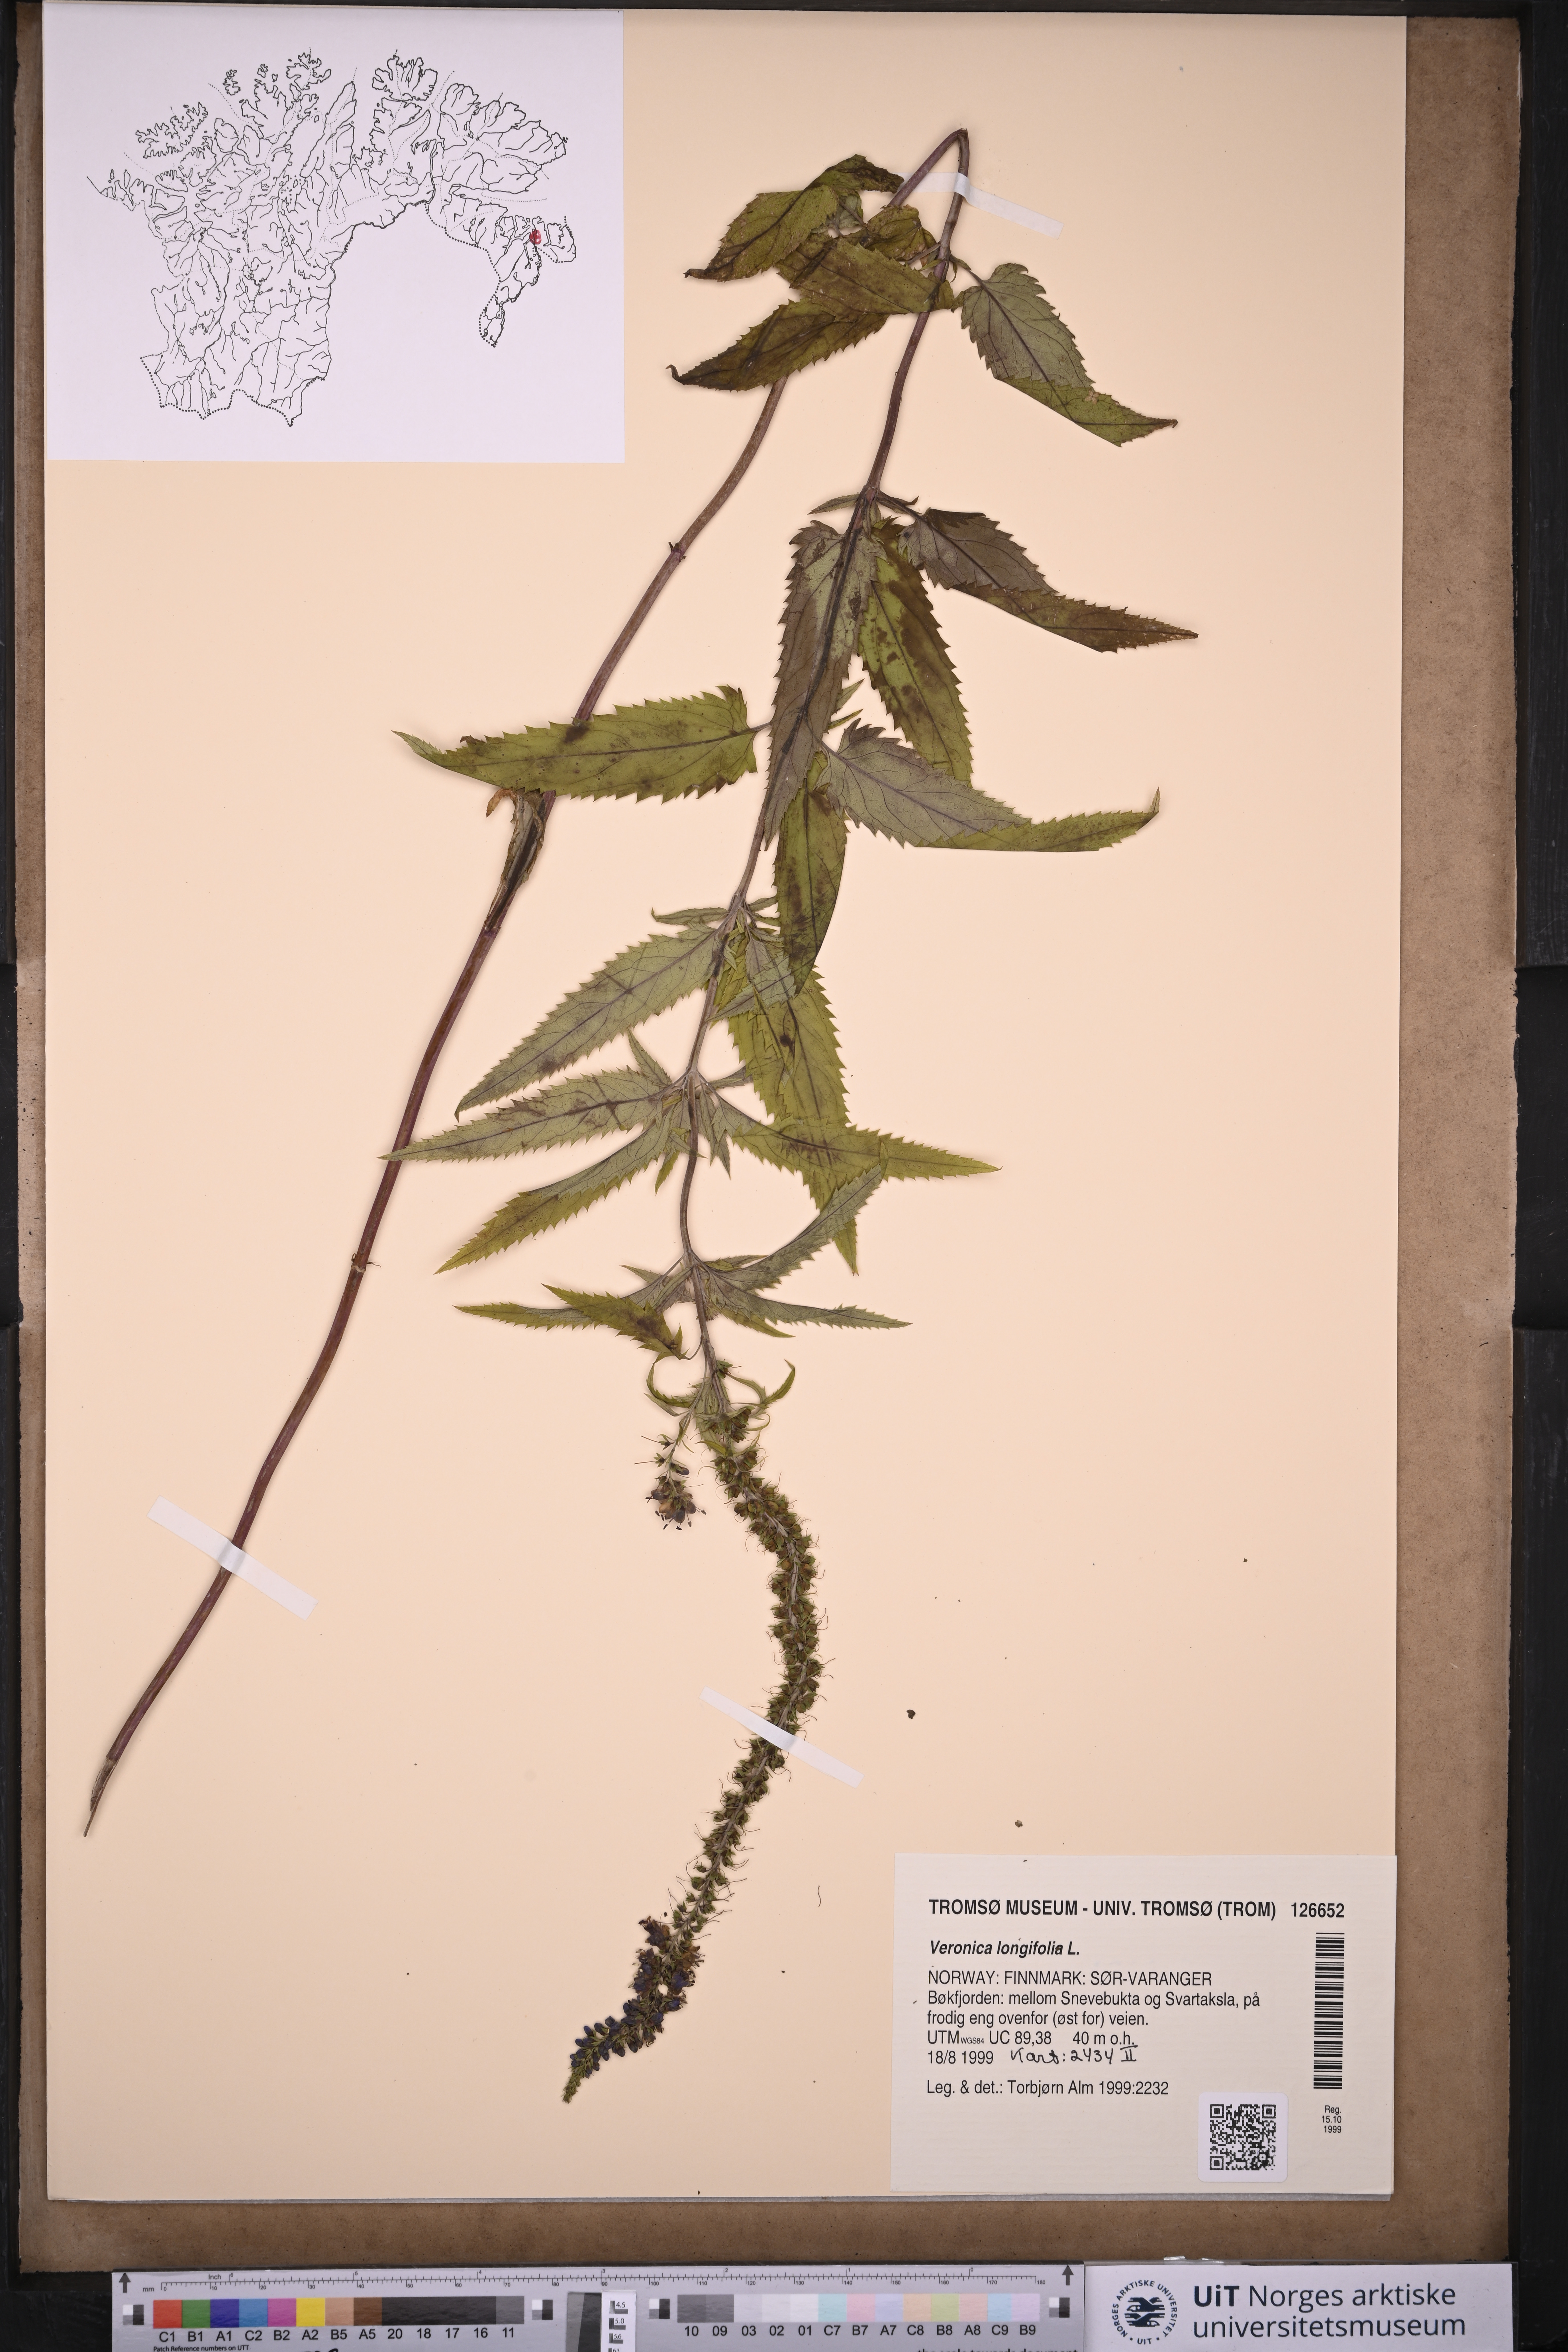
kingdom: Plantae
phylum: Tracheophyta
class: Magnoliopsida
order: Lamiales
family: Plantaginaceae
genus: Veronica
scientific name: Veronica longifolia
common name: Garden speedwell
